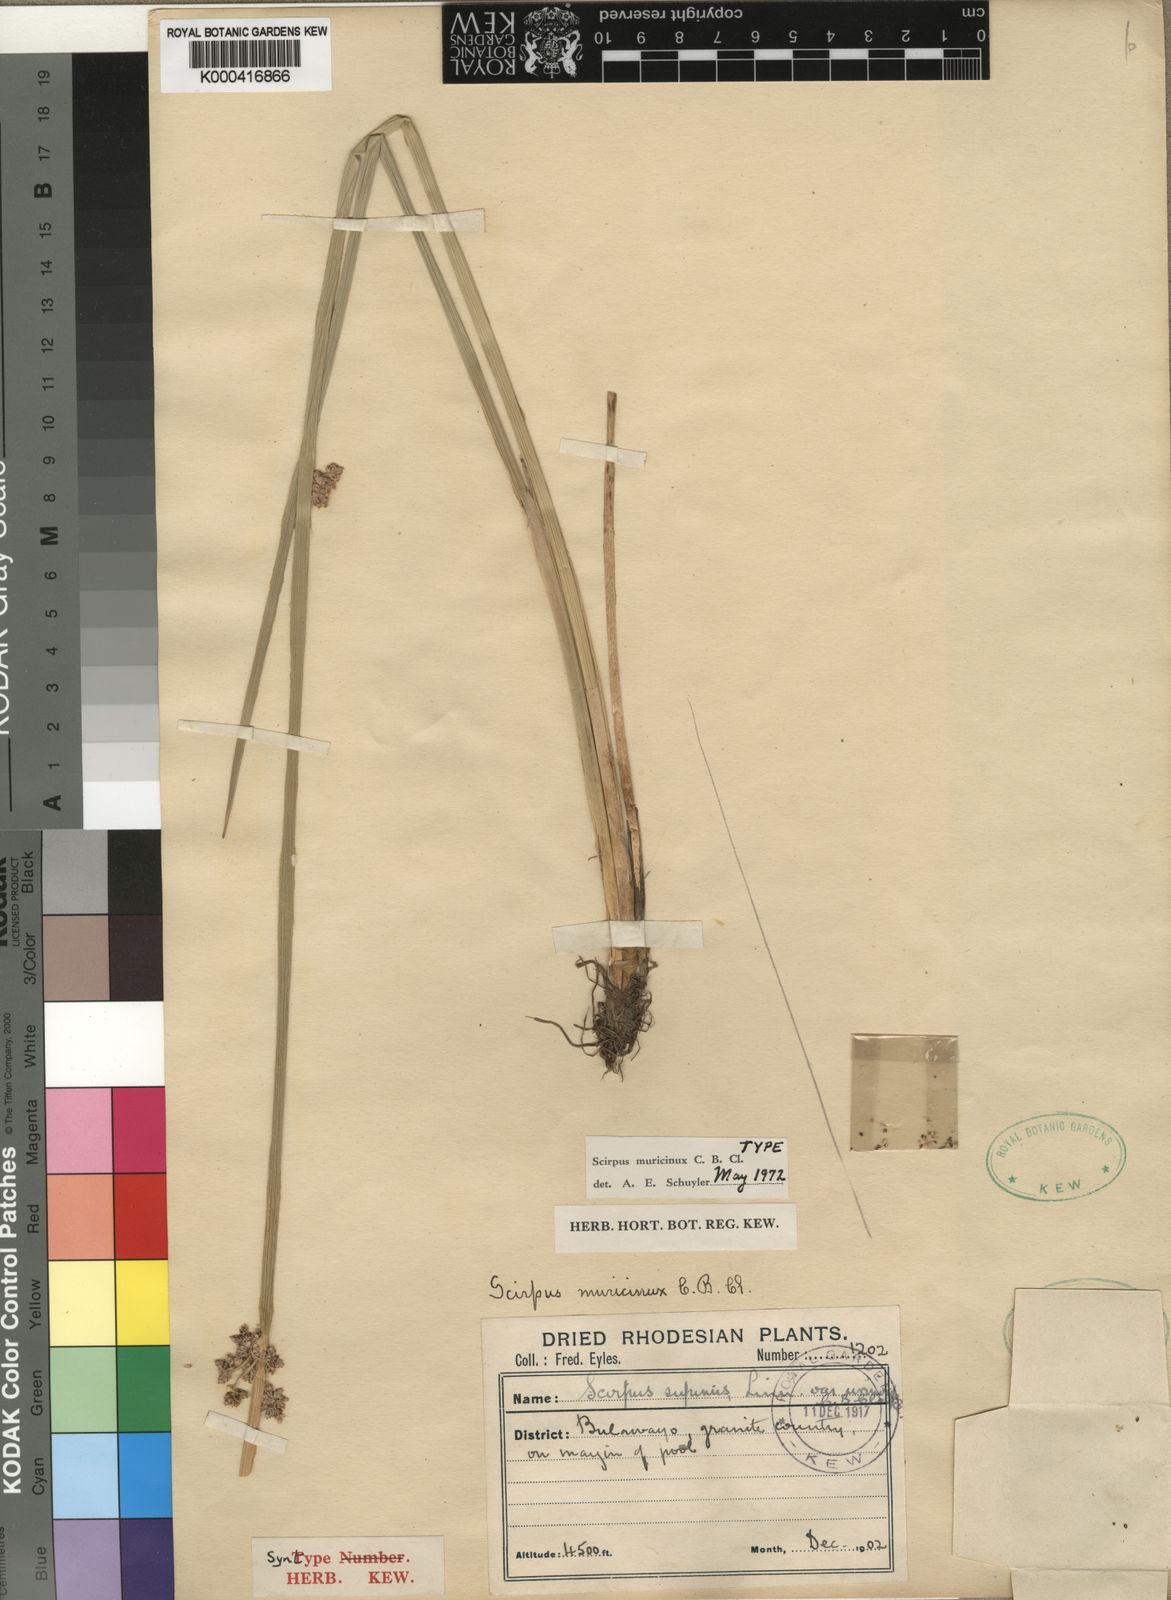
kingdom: Plantae
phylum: Tracheophyta
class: Liliopsida
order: Poales
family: Cyperaceae
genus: Schoenoplectiella
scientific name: Schoenoplectiella muricinux
